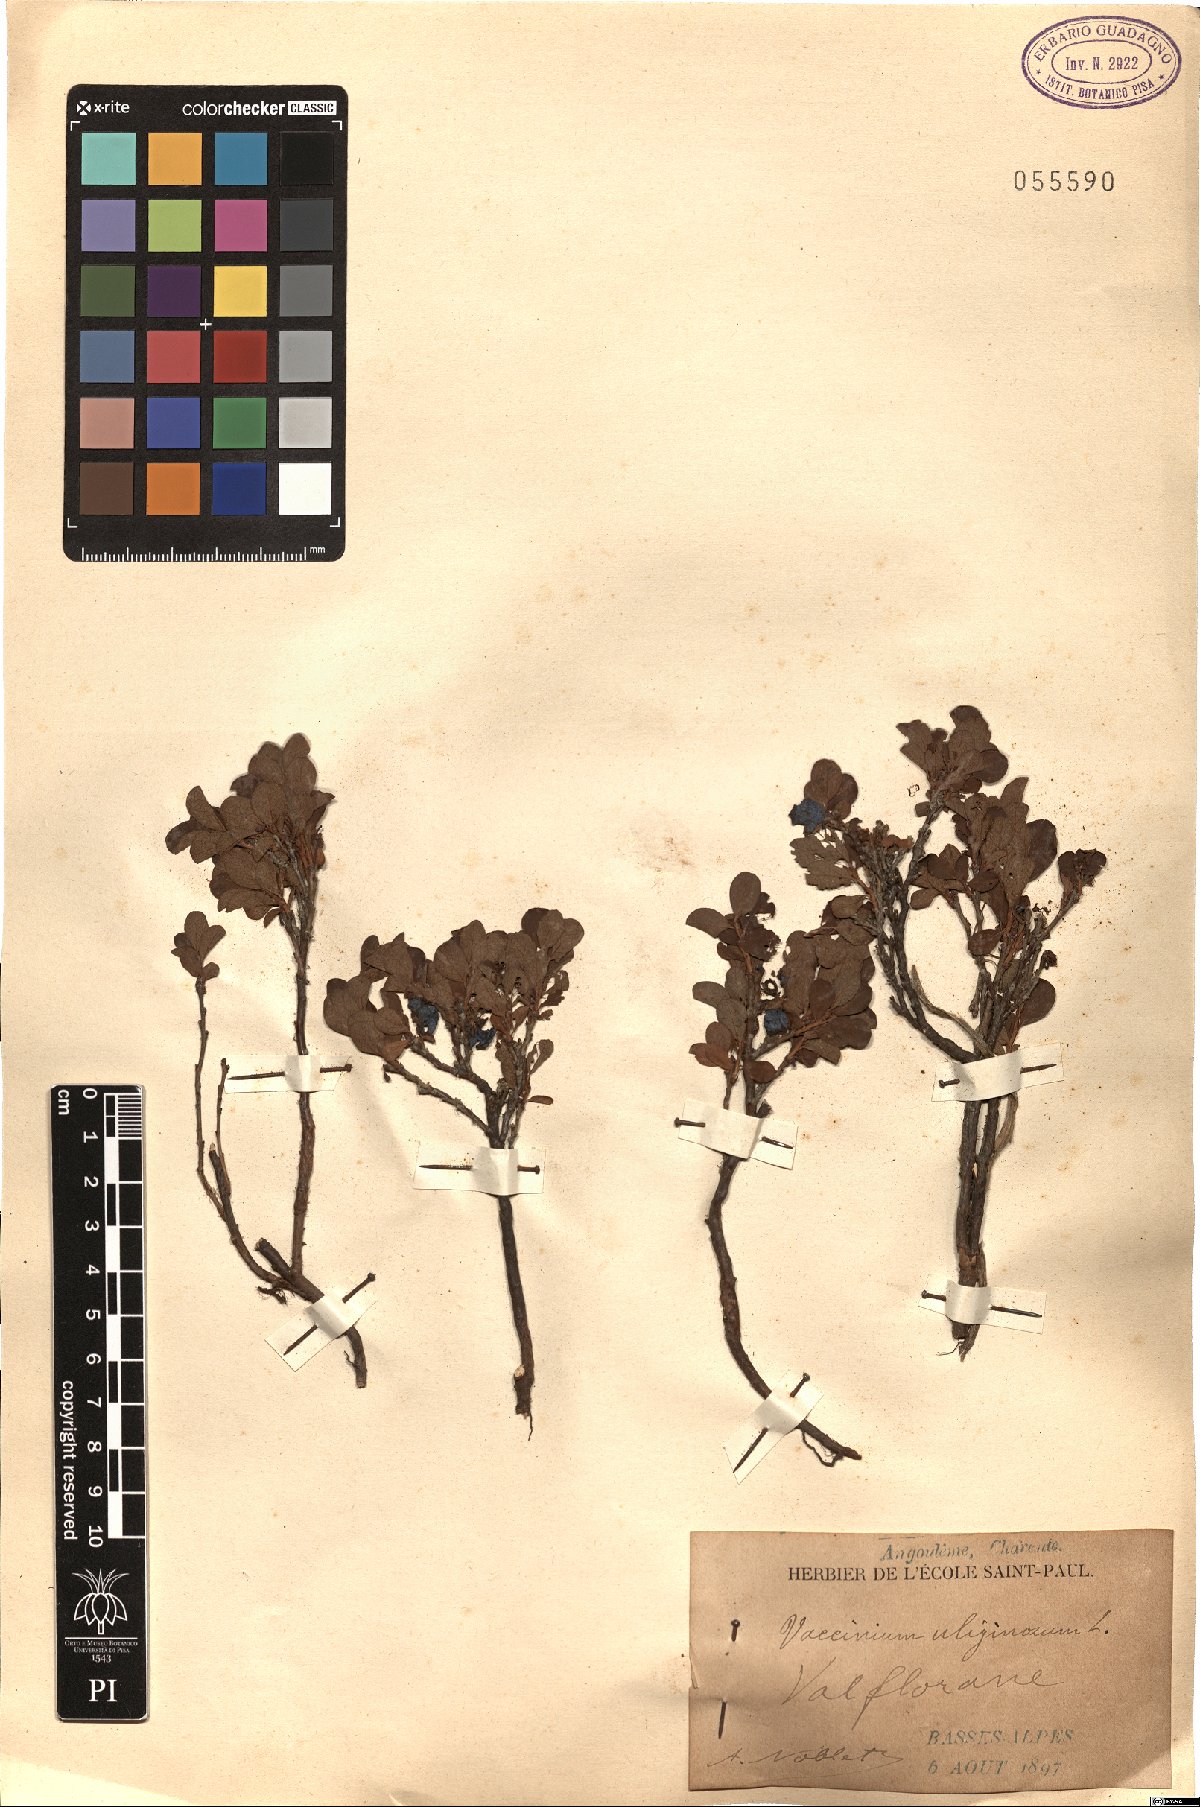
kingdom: Plantae
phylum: Tracheophyta
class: Magnoliopsida
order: Ericales
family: Ericaceae
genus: Vaccinium
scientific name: Vaccinium uliginosum
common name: Bog bilberry
